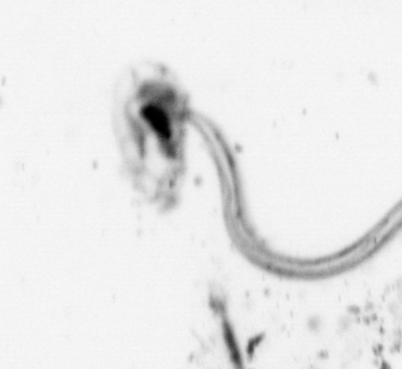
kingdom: Animalia
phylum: Chordata
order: Copelata
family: Fritillariidae
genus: Appendicularia
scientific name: Appendicularia
